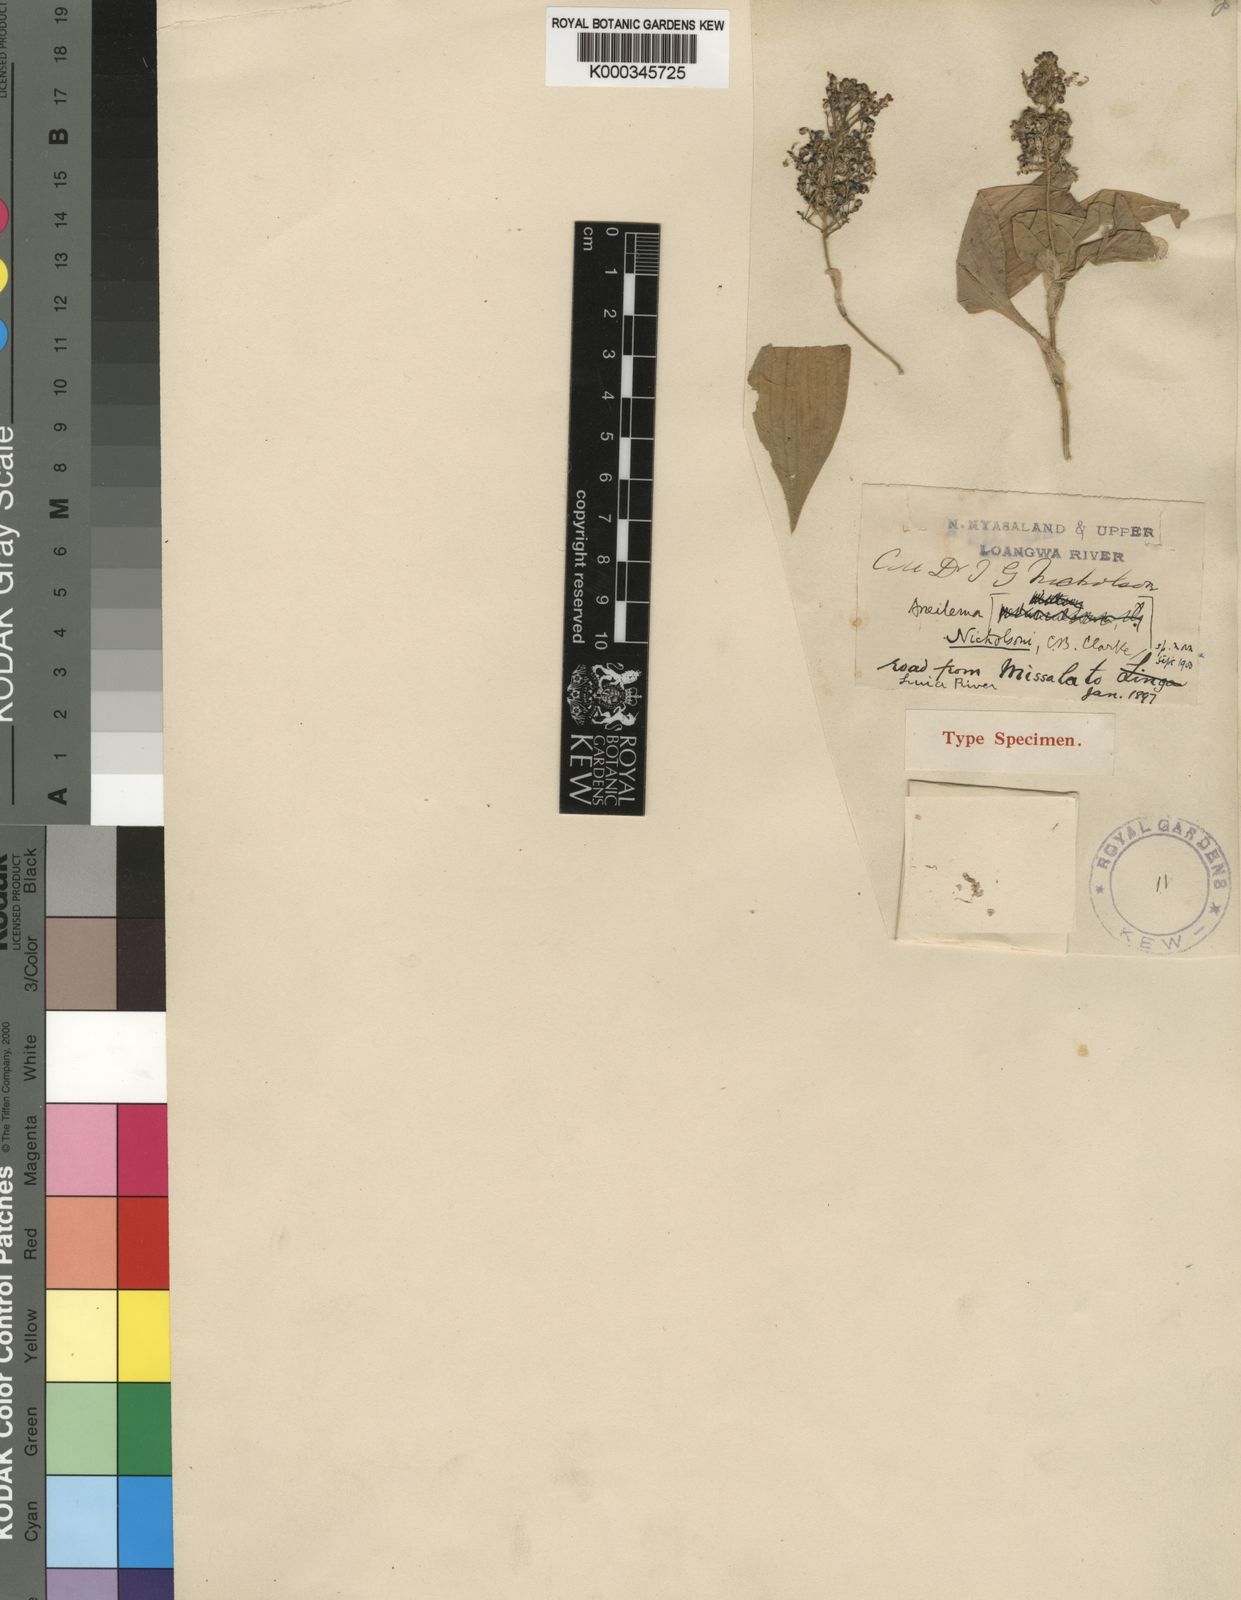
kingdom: Plantae
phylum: Tracheophyta
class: Liliopsida
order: Commelinales
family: Commelinaceae
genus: Aneilema
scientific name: Aneilema nicholsonii
